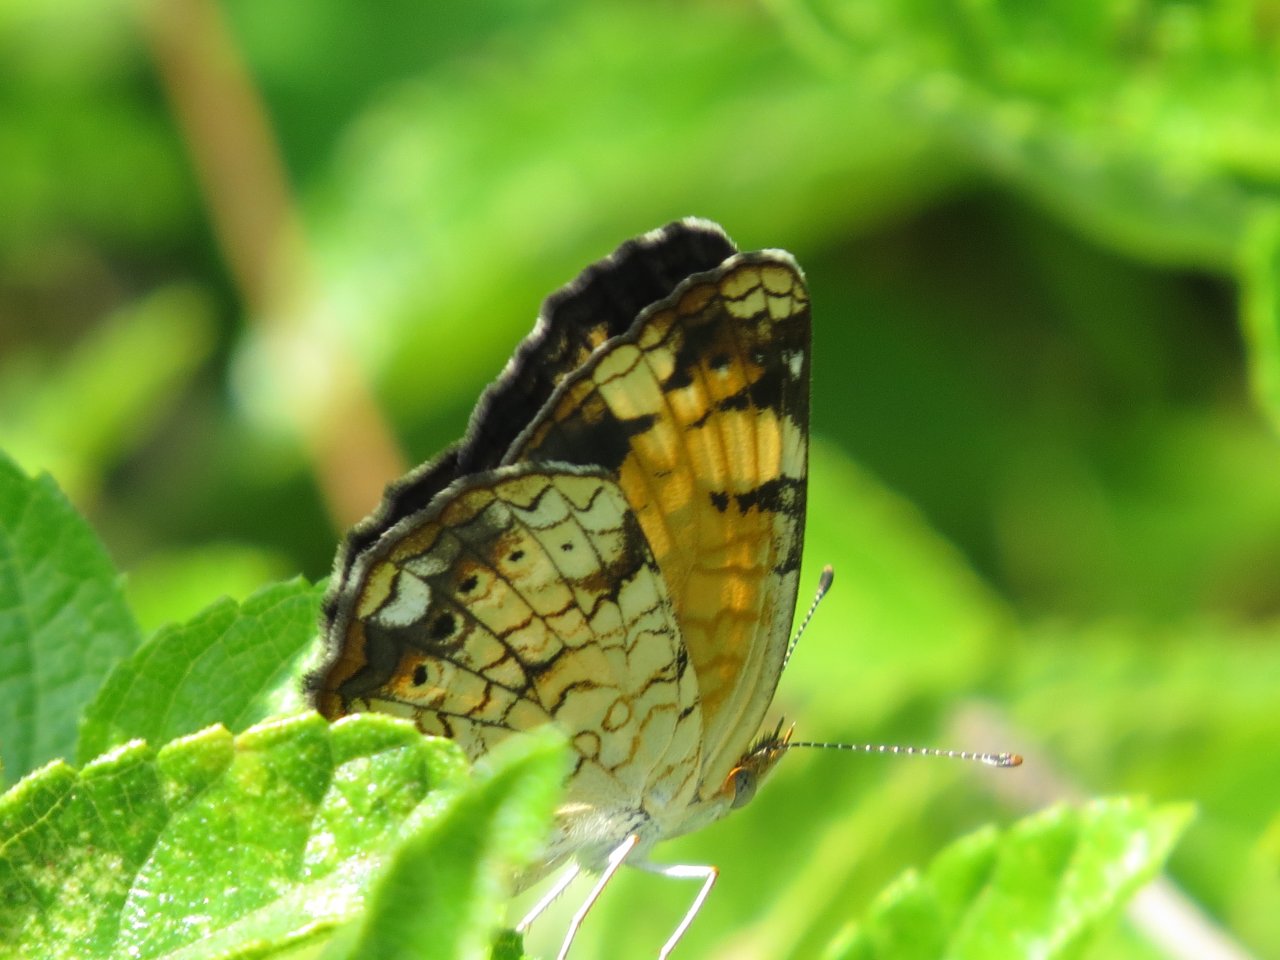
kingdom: Animalia
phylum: Arthropoda
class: Insecta
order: Lepidoptera
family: Nymphalidae
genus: Phyciodes
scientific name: Phyciodes tharos
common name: Pearl Crescent
